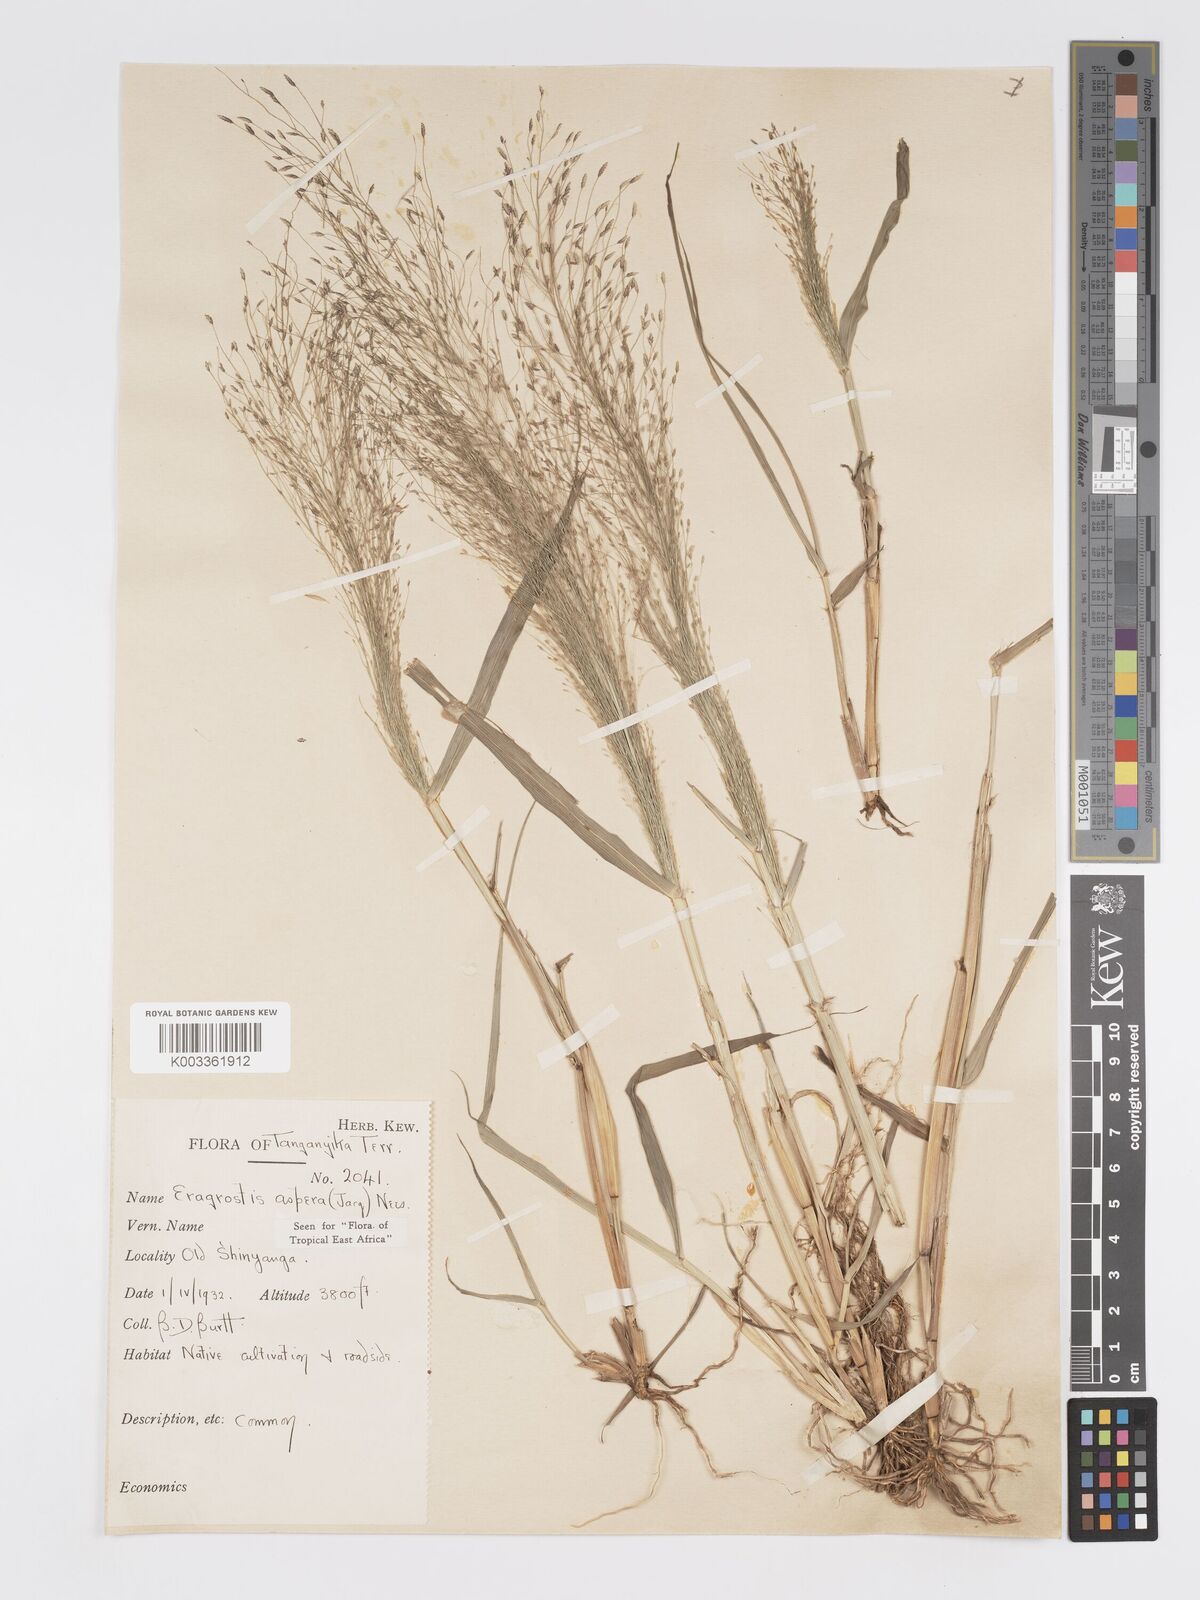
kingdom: Plantae
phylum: Tracheophyta
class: Liliopsida
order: Poales
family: Poaceae
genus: Eragrostis
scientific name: Eragrostis aspera
